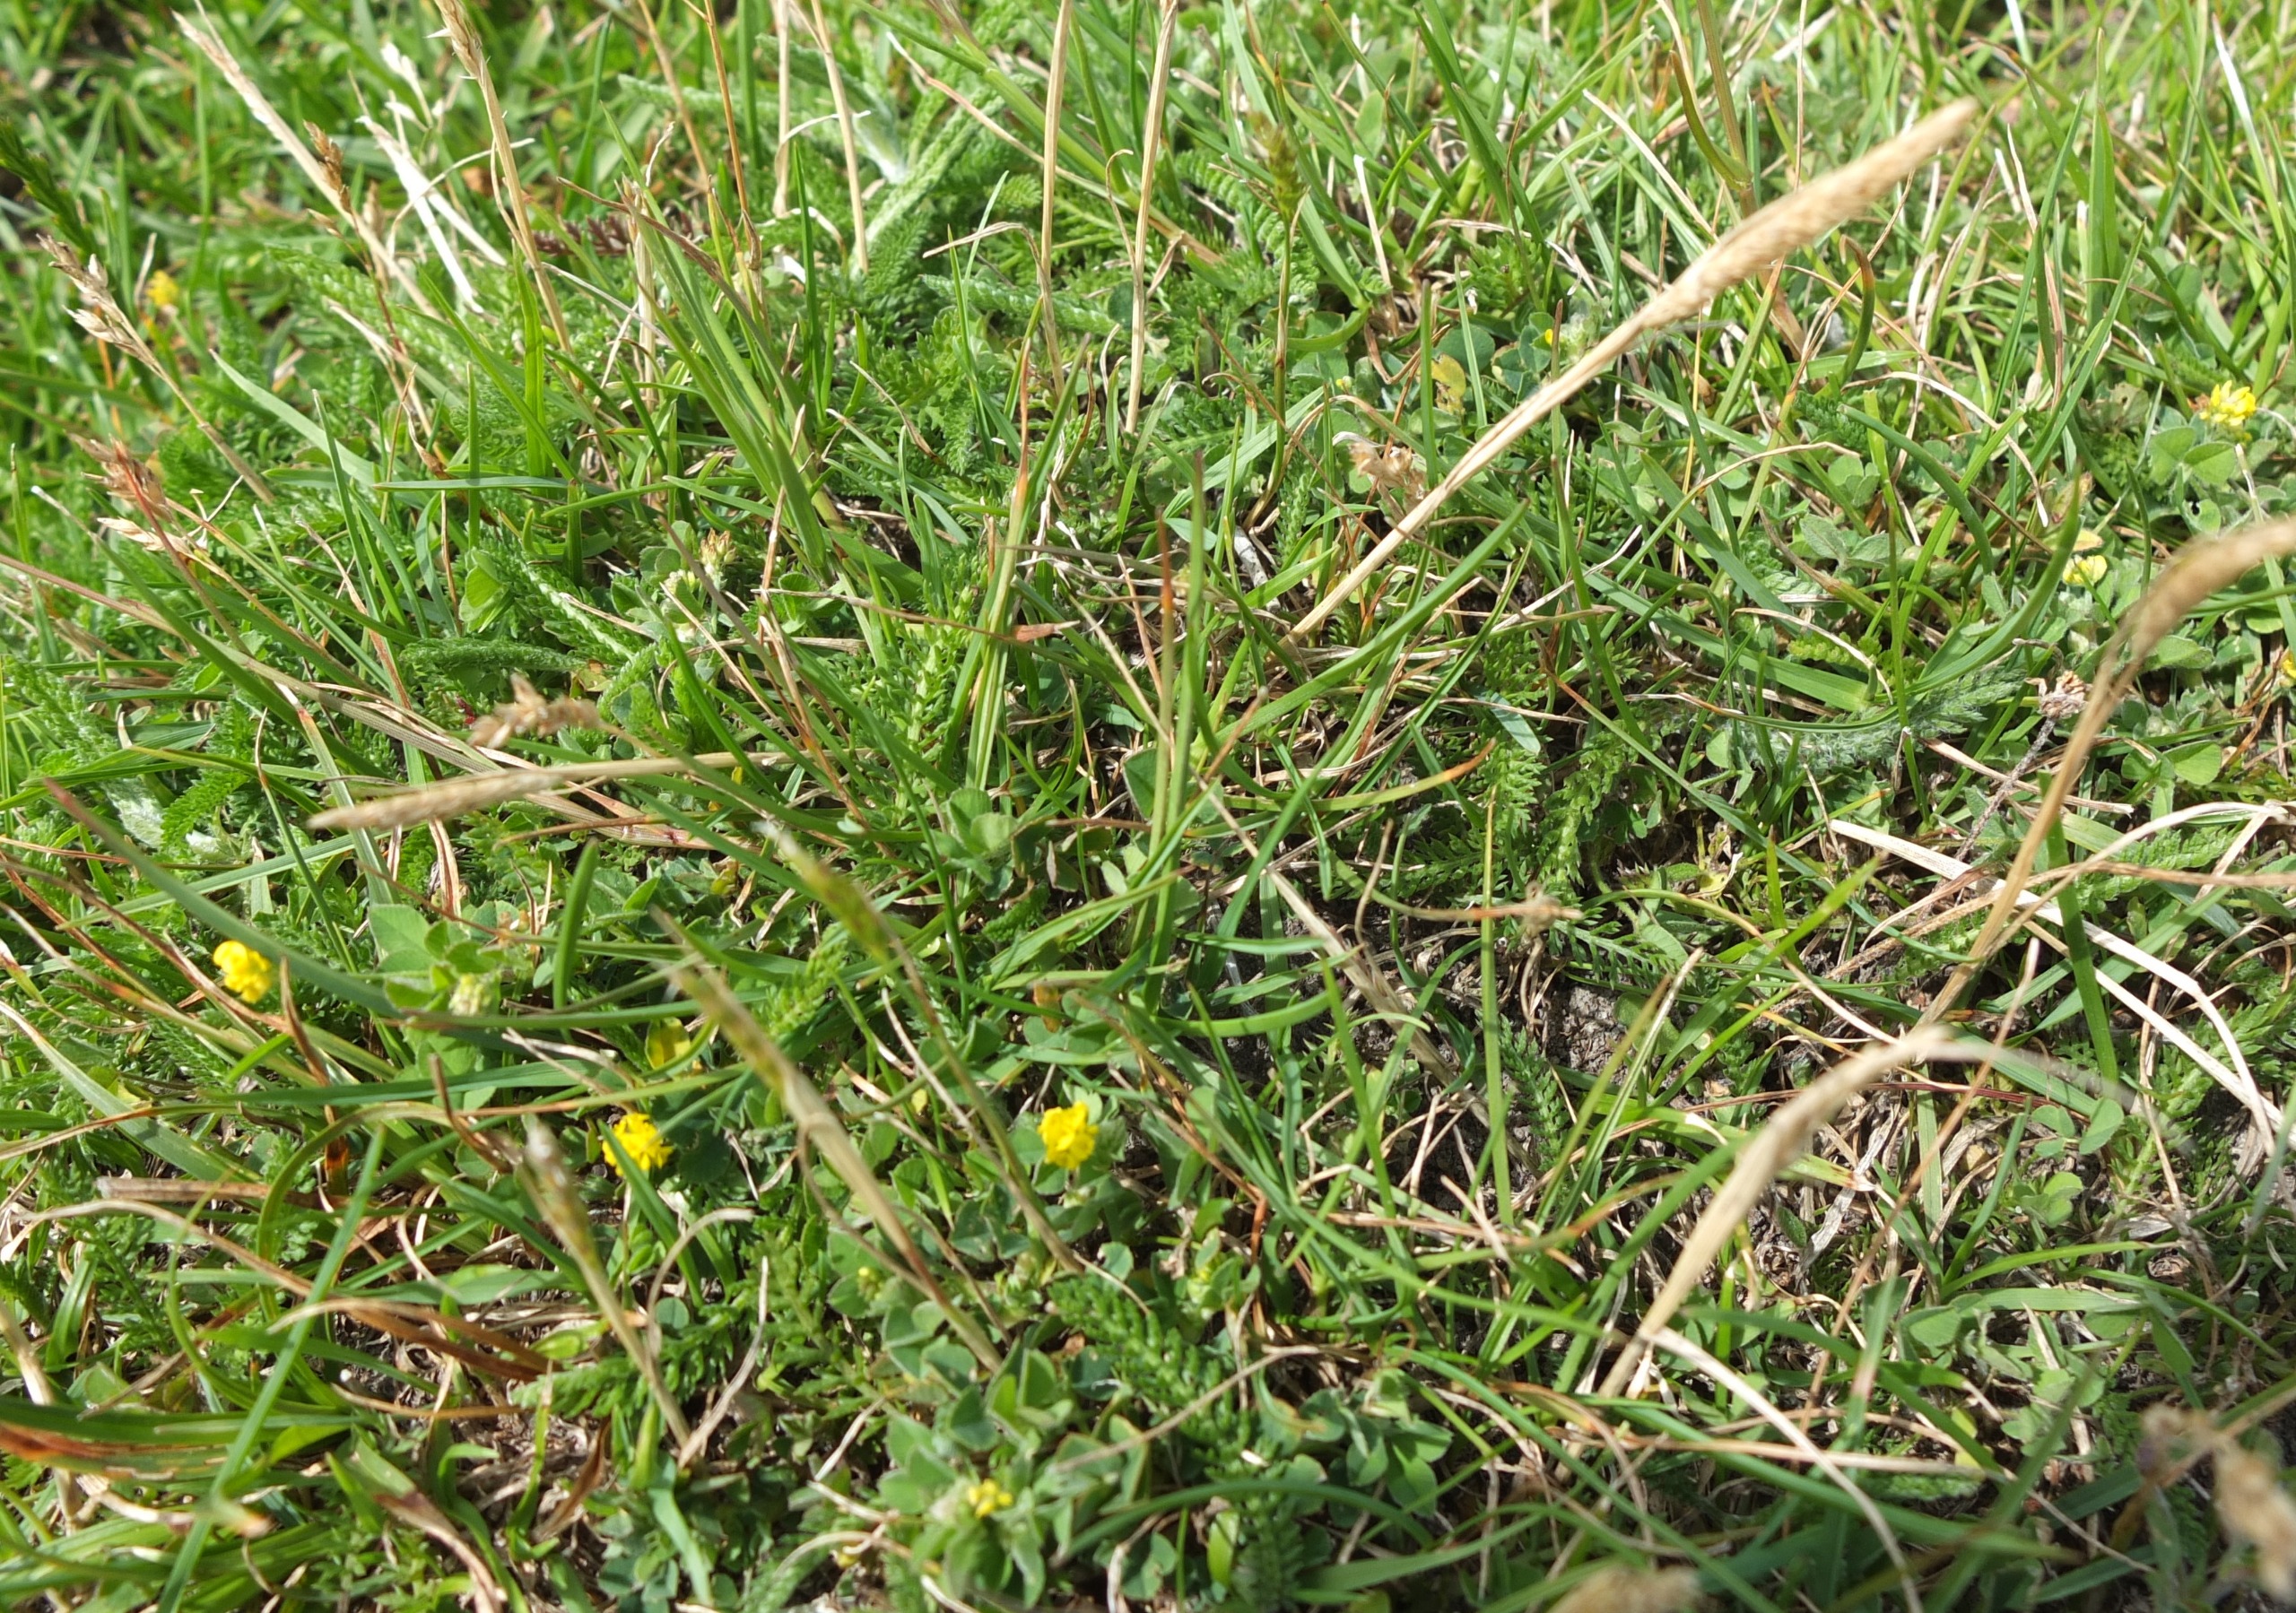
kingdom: Plantae
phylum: Tracheophyta
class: Magnoliopsida
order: Fabales
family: Fabaceae
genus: Medicago
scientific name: Medicago lupulina
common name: Humle-sneglebælg
